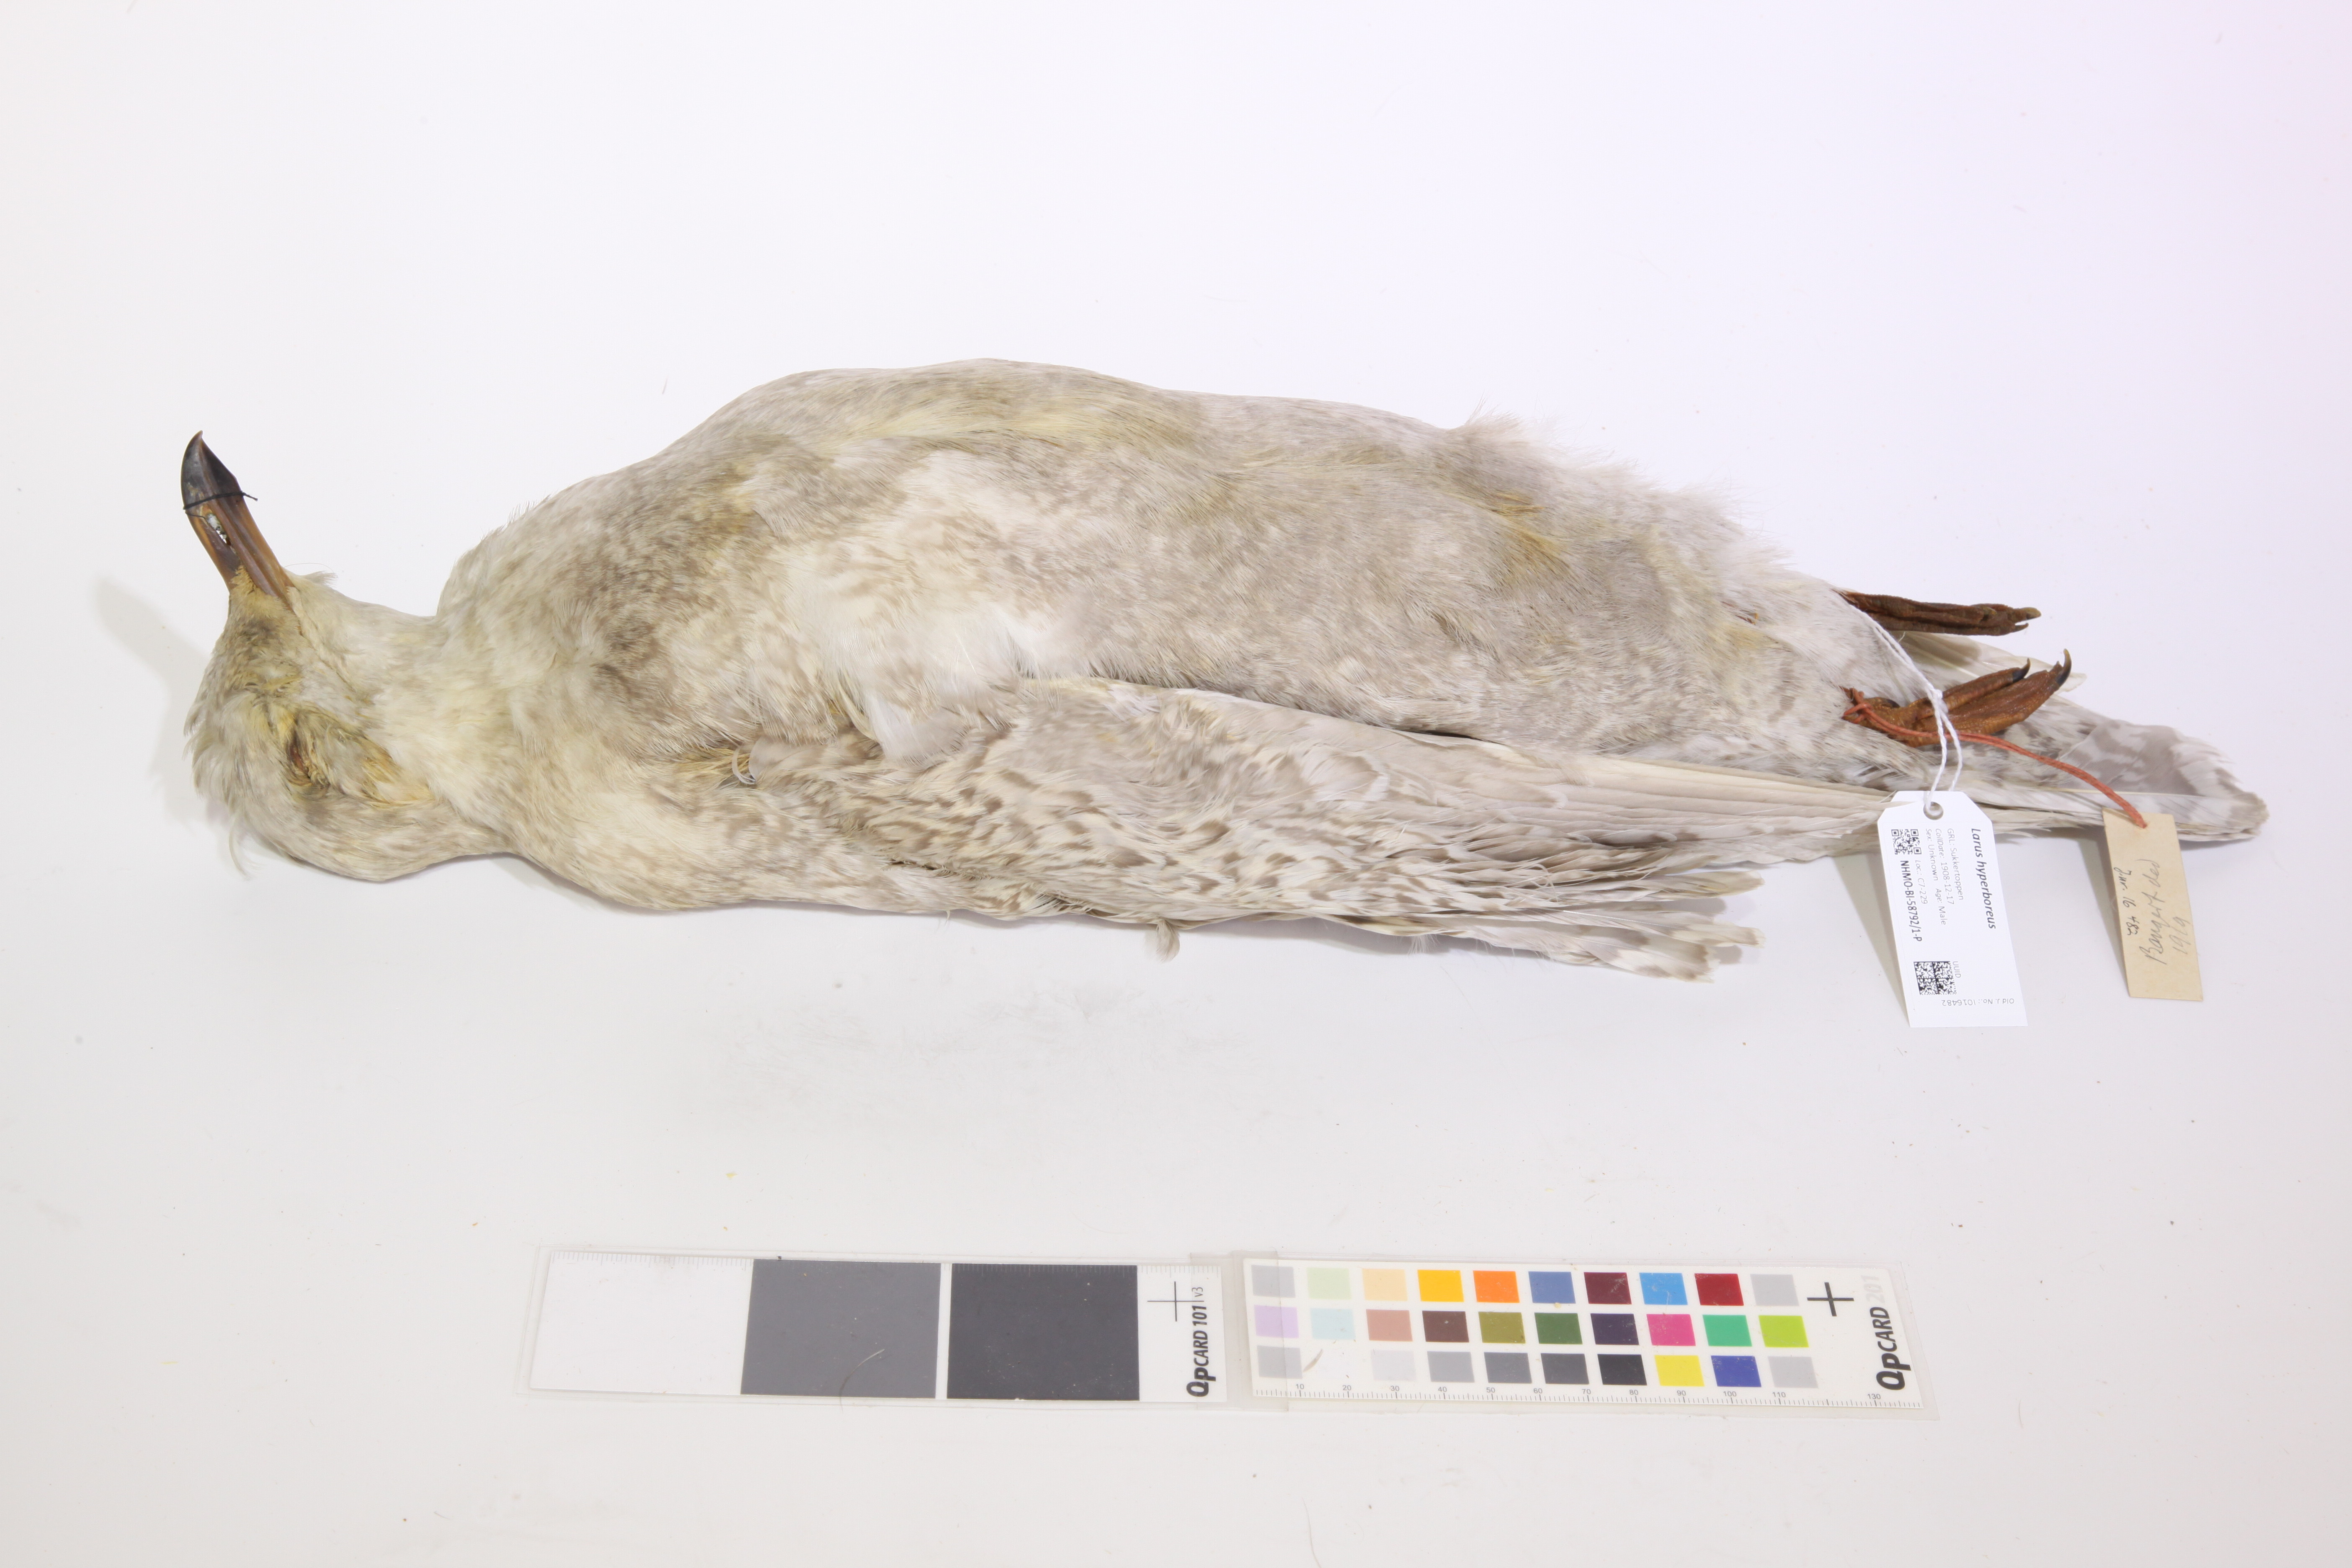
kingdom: Animalia
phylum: Chordata
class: Aves
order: Charadriiformes
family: Laridae
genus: Larus
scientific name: Larus hyperboreus
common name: Glaucous gull
